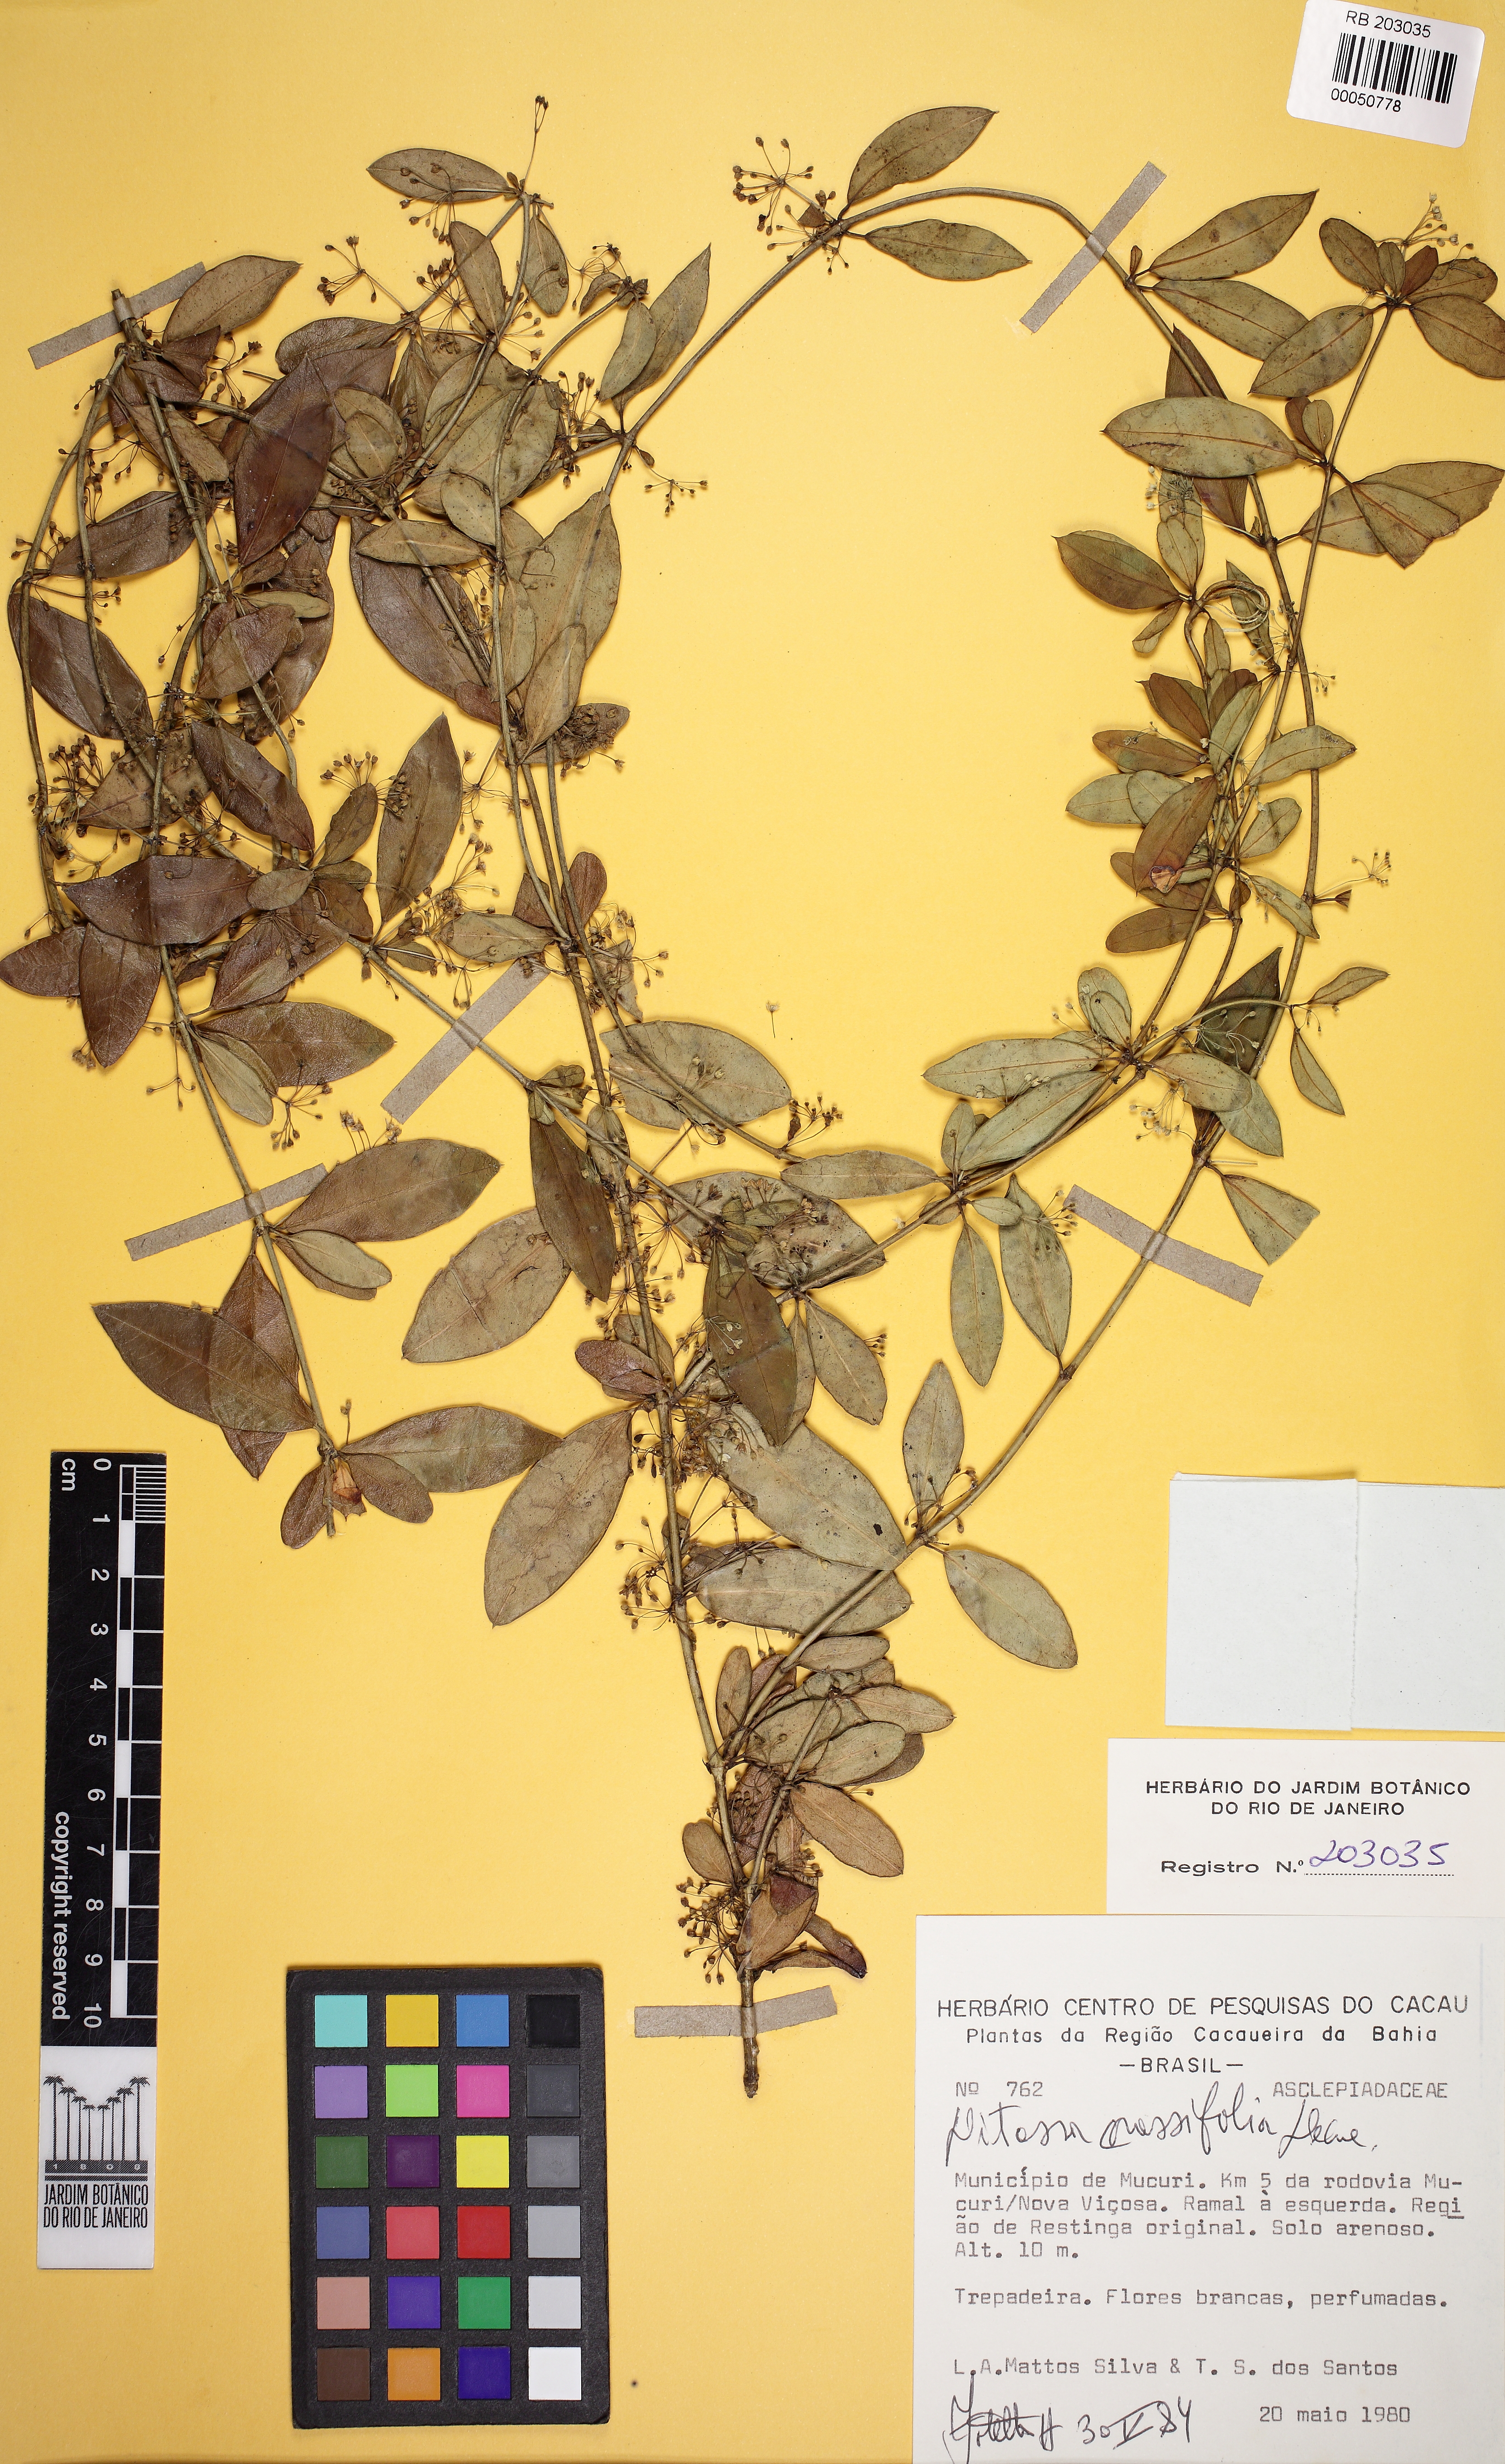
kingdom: Plantae
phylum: Tracheophyta
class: Magnoliopsida
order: Gentianales
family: Apocynaceae
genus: Ditassa
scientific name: Ditassa crassifolia
